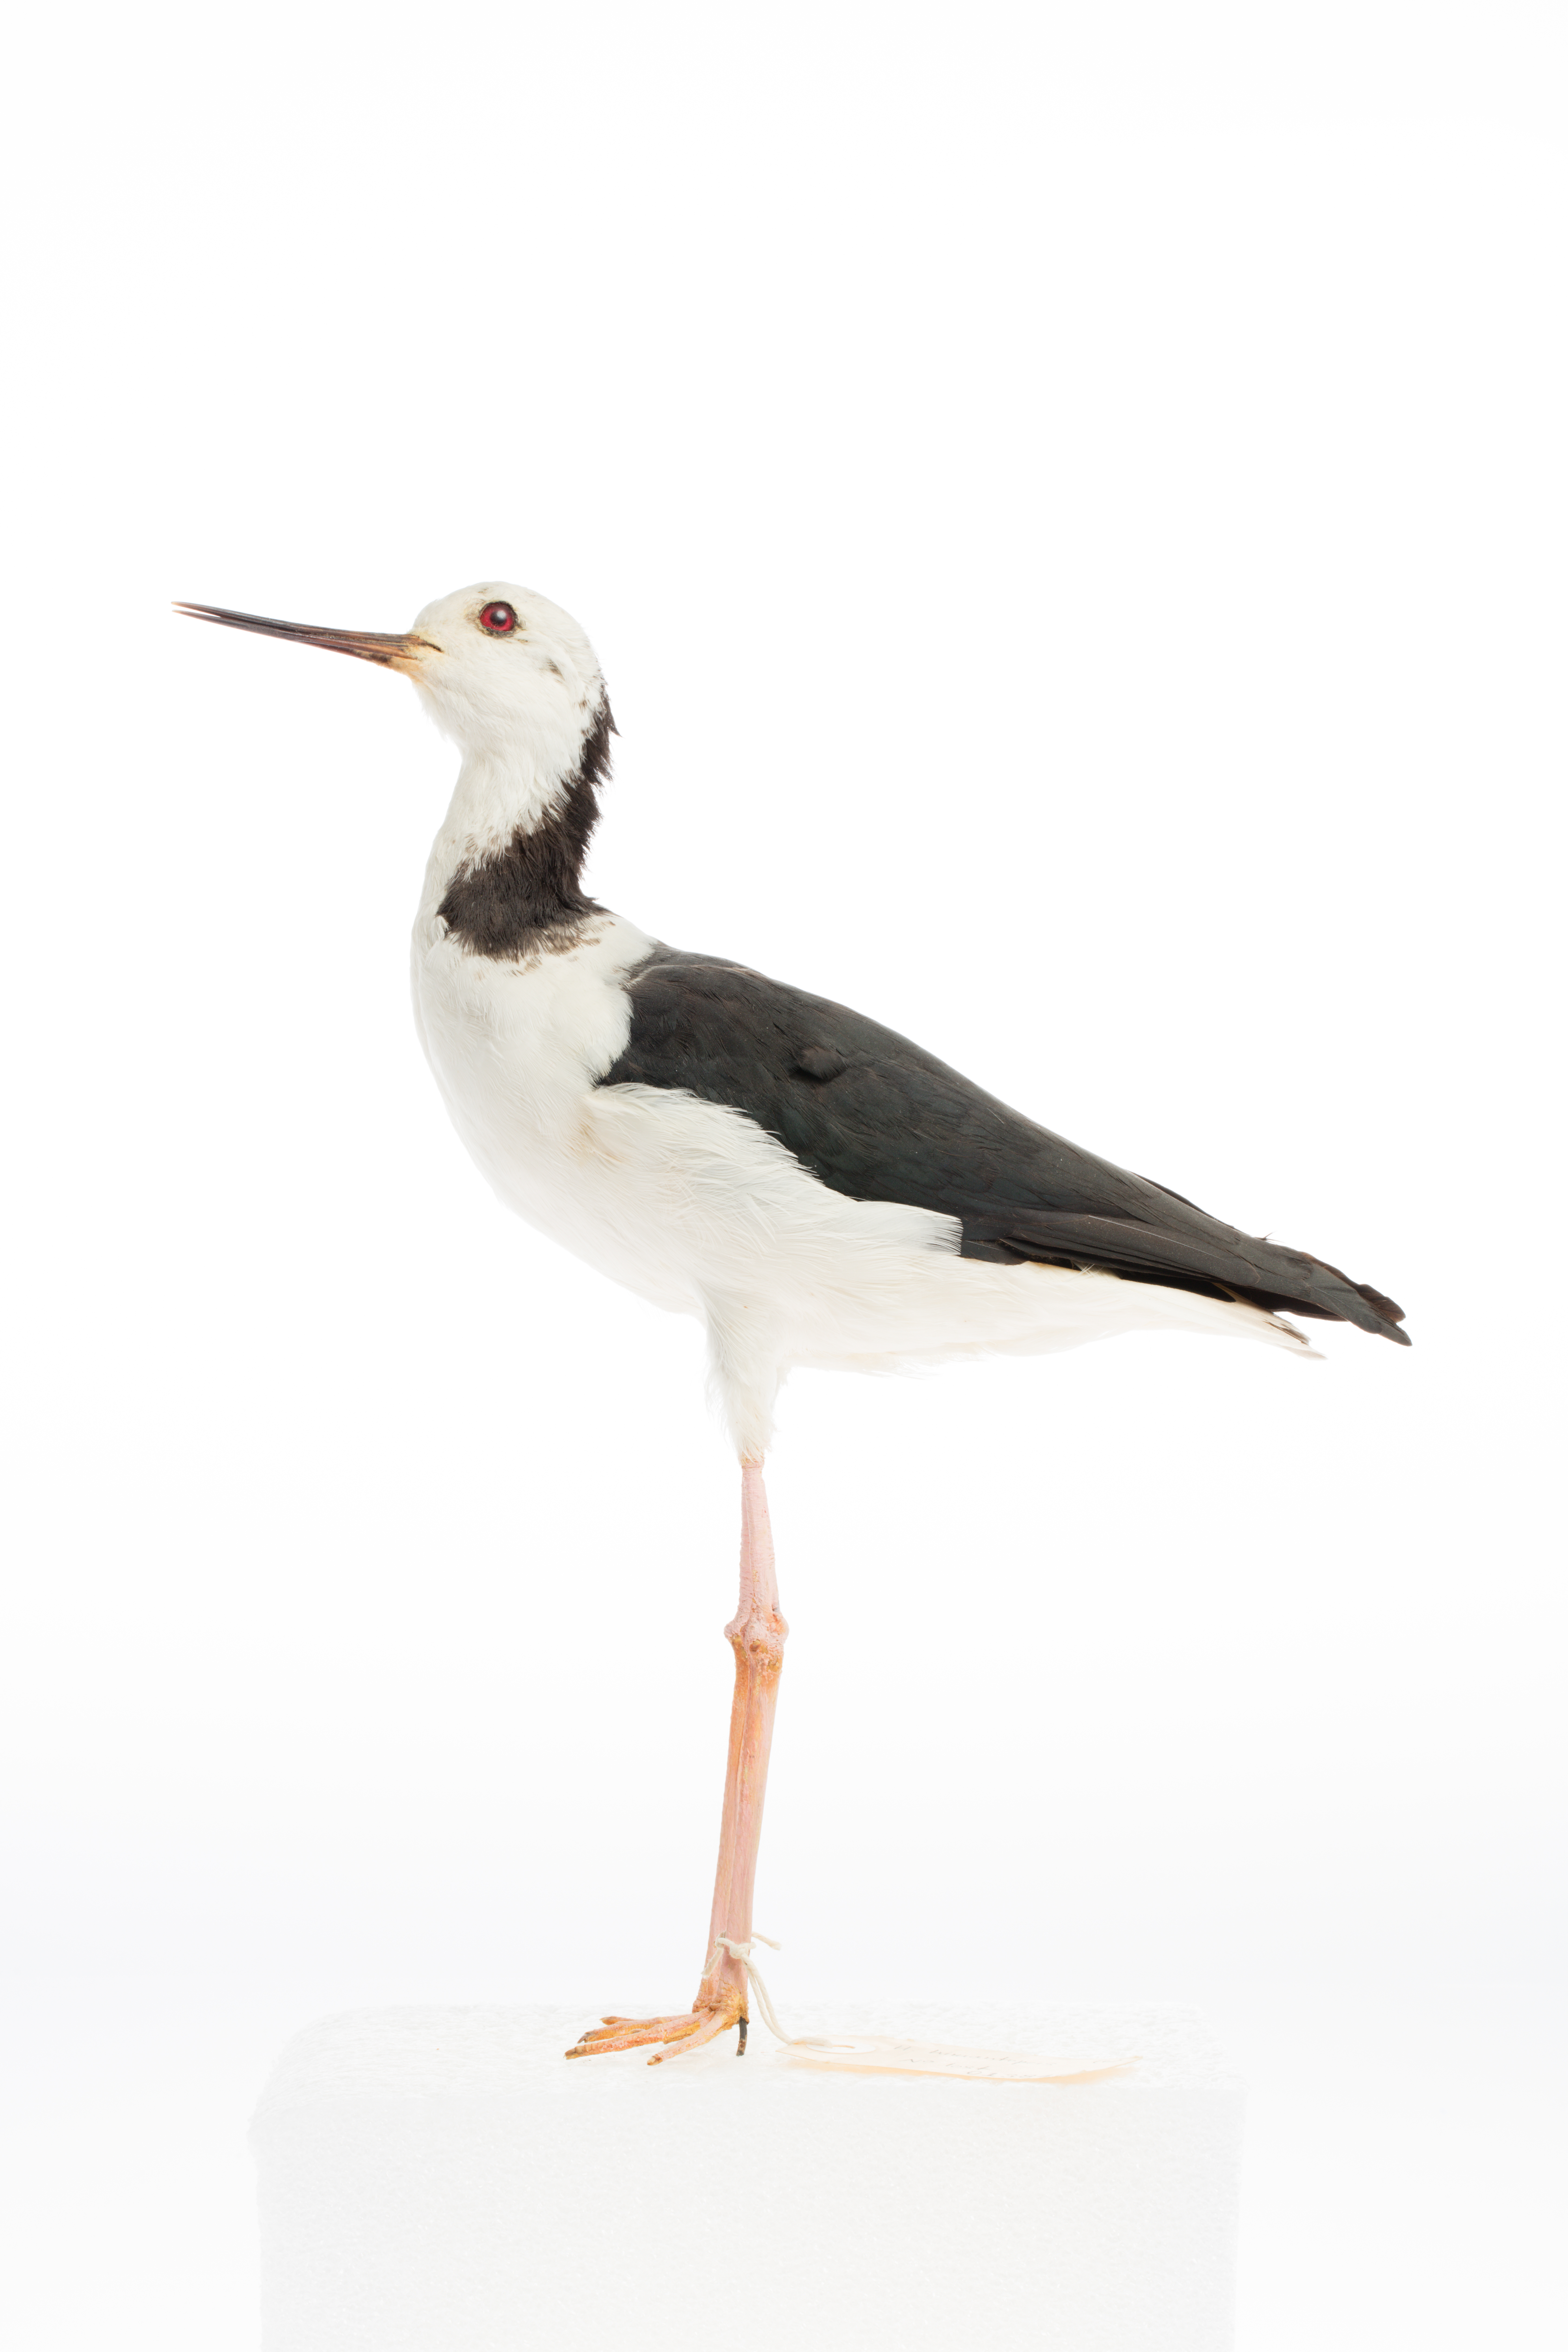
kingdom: Animalia
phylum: Chordata
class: Aves
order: Charadriiformes
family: Recurvirostridae
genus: Himantopus
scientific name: Himantopus himantopus
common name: Black-winged stilt
